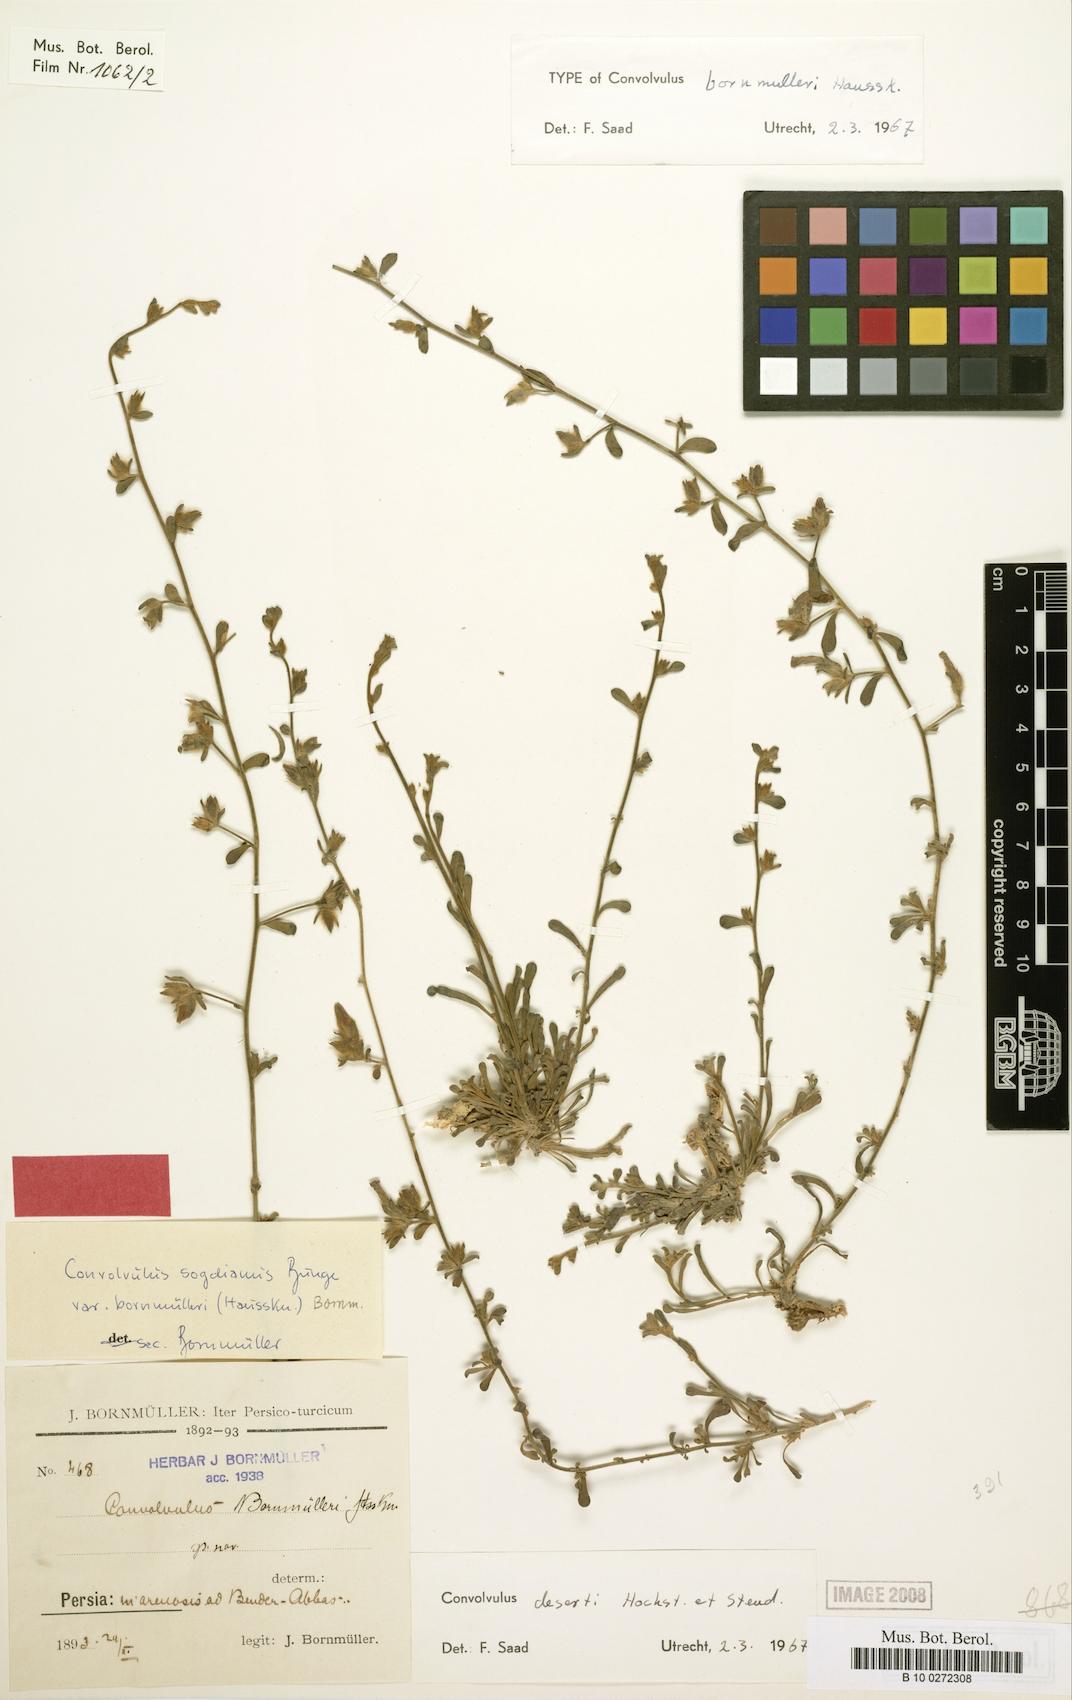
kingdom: Plantae
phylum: Tracheophyta
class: Magnoliopsida
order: Solanales
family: Convolvulaceae
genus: Convolvulus
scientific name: Convolvulus prostratus
